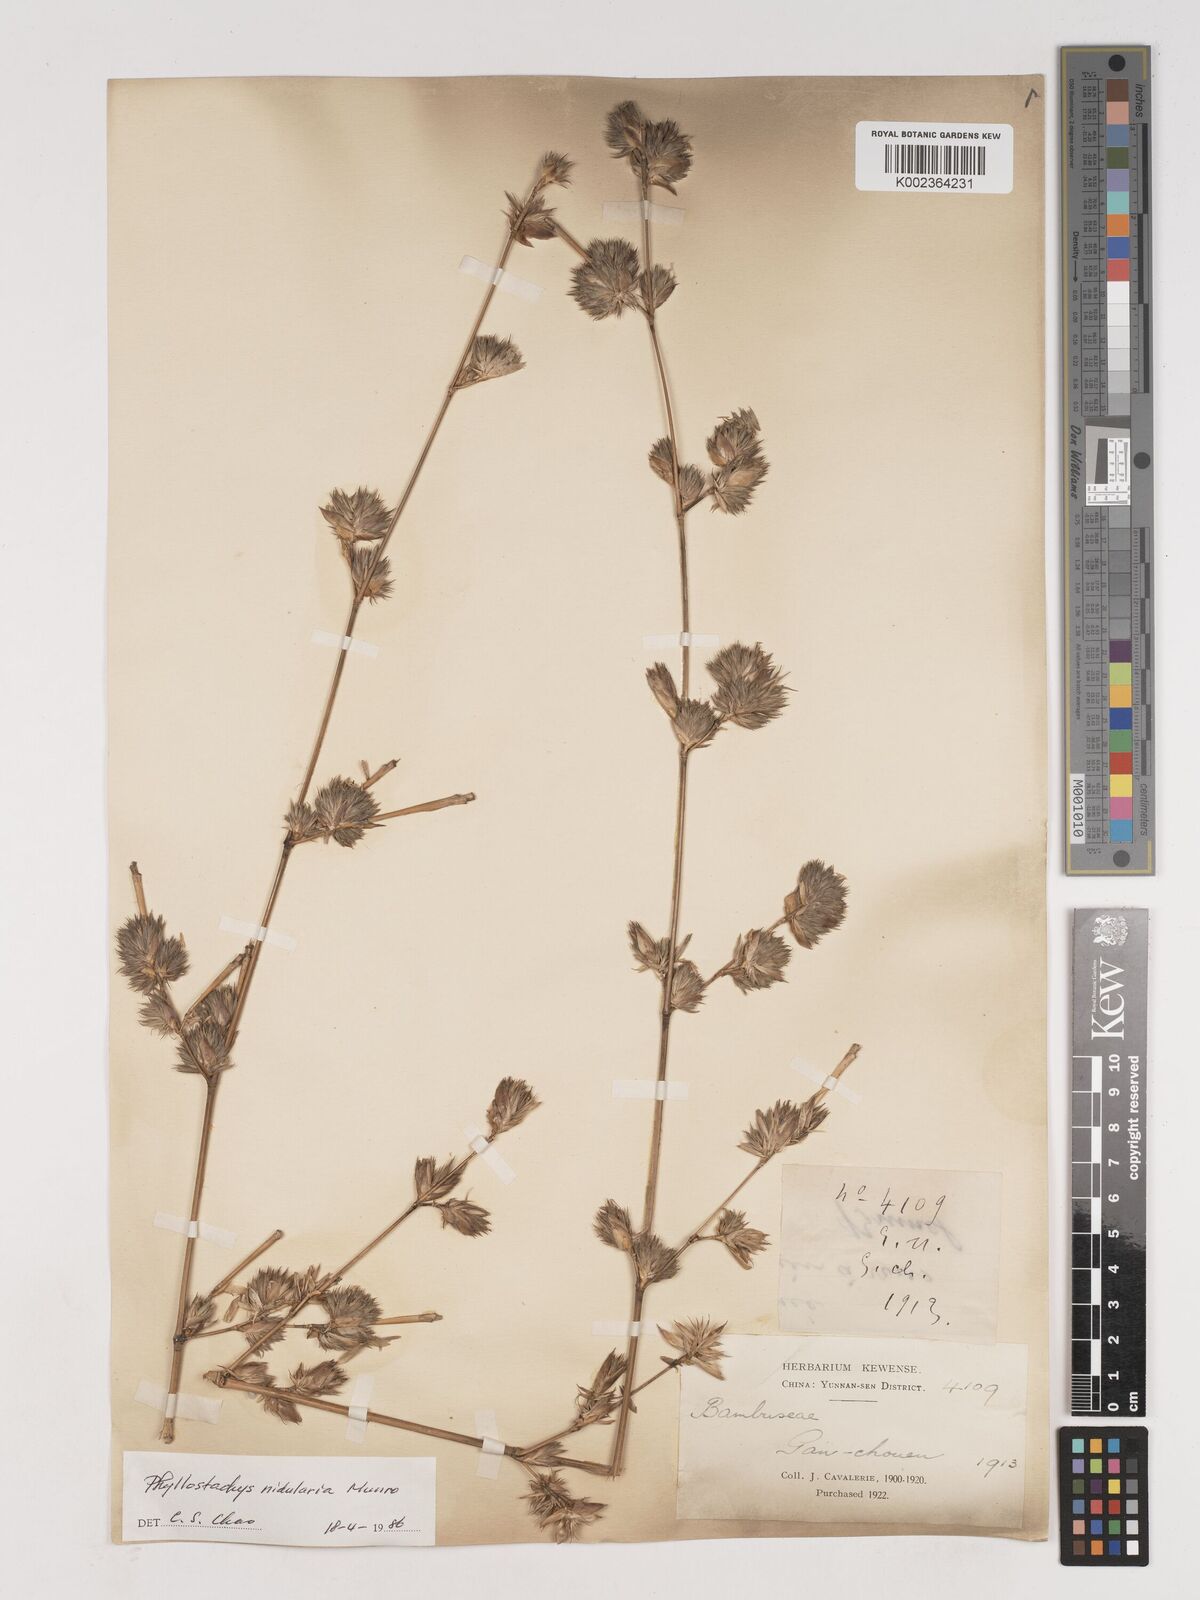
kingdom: Plantae
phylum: Tracheophyta
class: Liliopsida
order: Poales
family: Poaceae
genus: Phyllostachys
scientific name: Phyllostachys nidularia
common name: Broom bamboo
